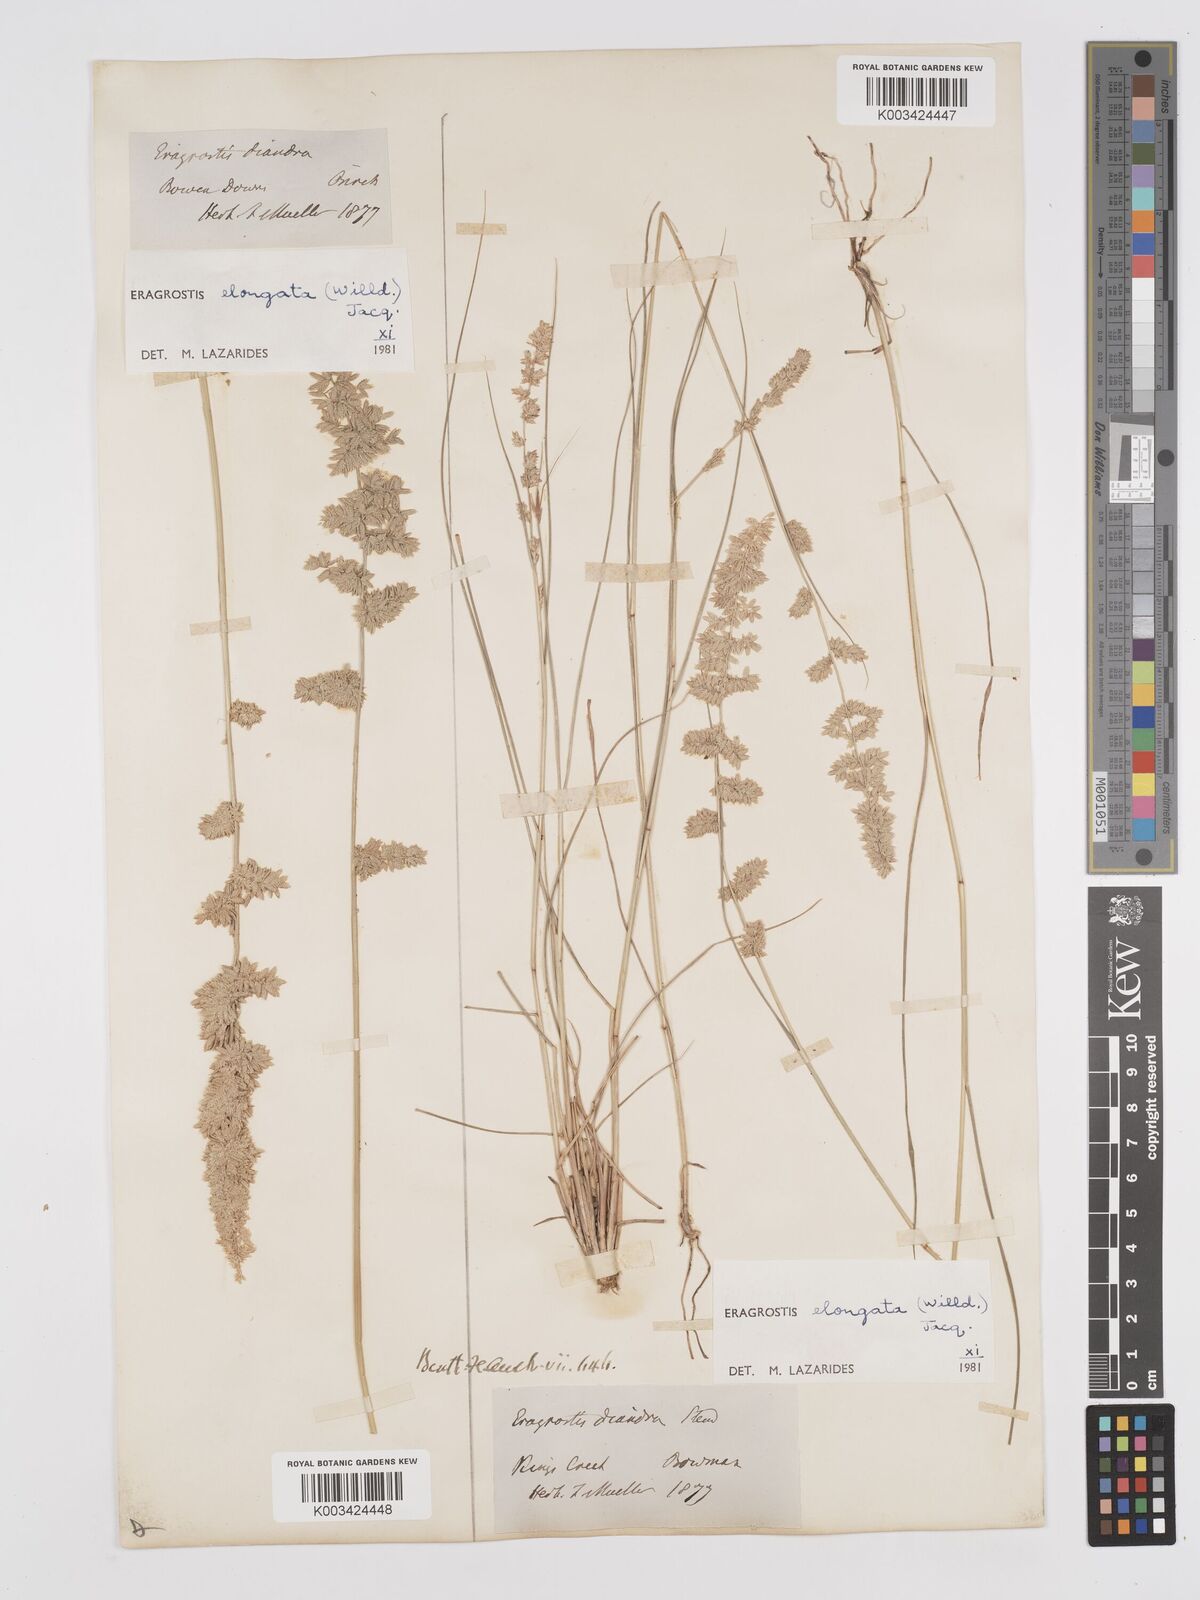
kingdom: Plantae
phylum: Tracheophyta
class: Liliopsida
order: Poales
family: Poaceae
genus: Eragrostis
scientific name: Eragrostis elongata
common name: Long lovegrass
